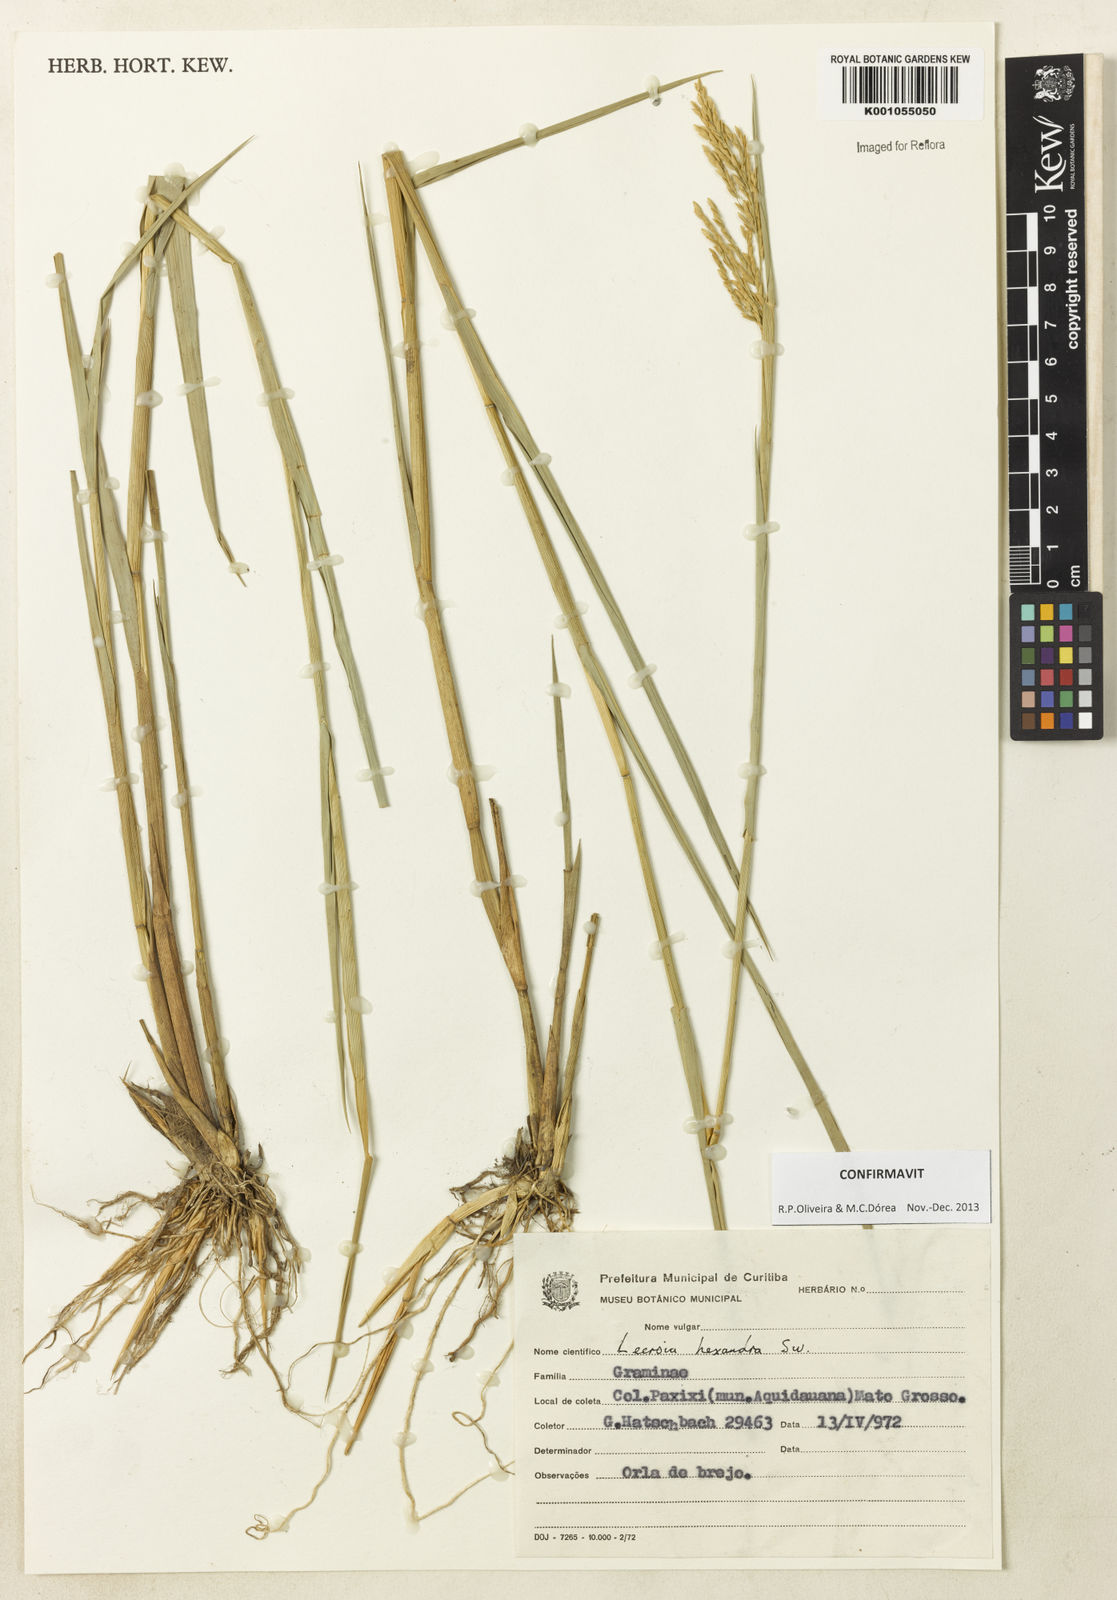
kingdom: Plantae
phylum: Tracheophyta
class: Liliopsida
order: Poales
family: Poaceae
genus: Leersia
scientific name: Leersia hexandra
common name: Southern cut grass
